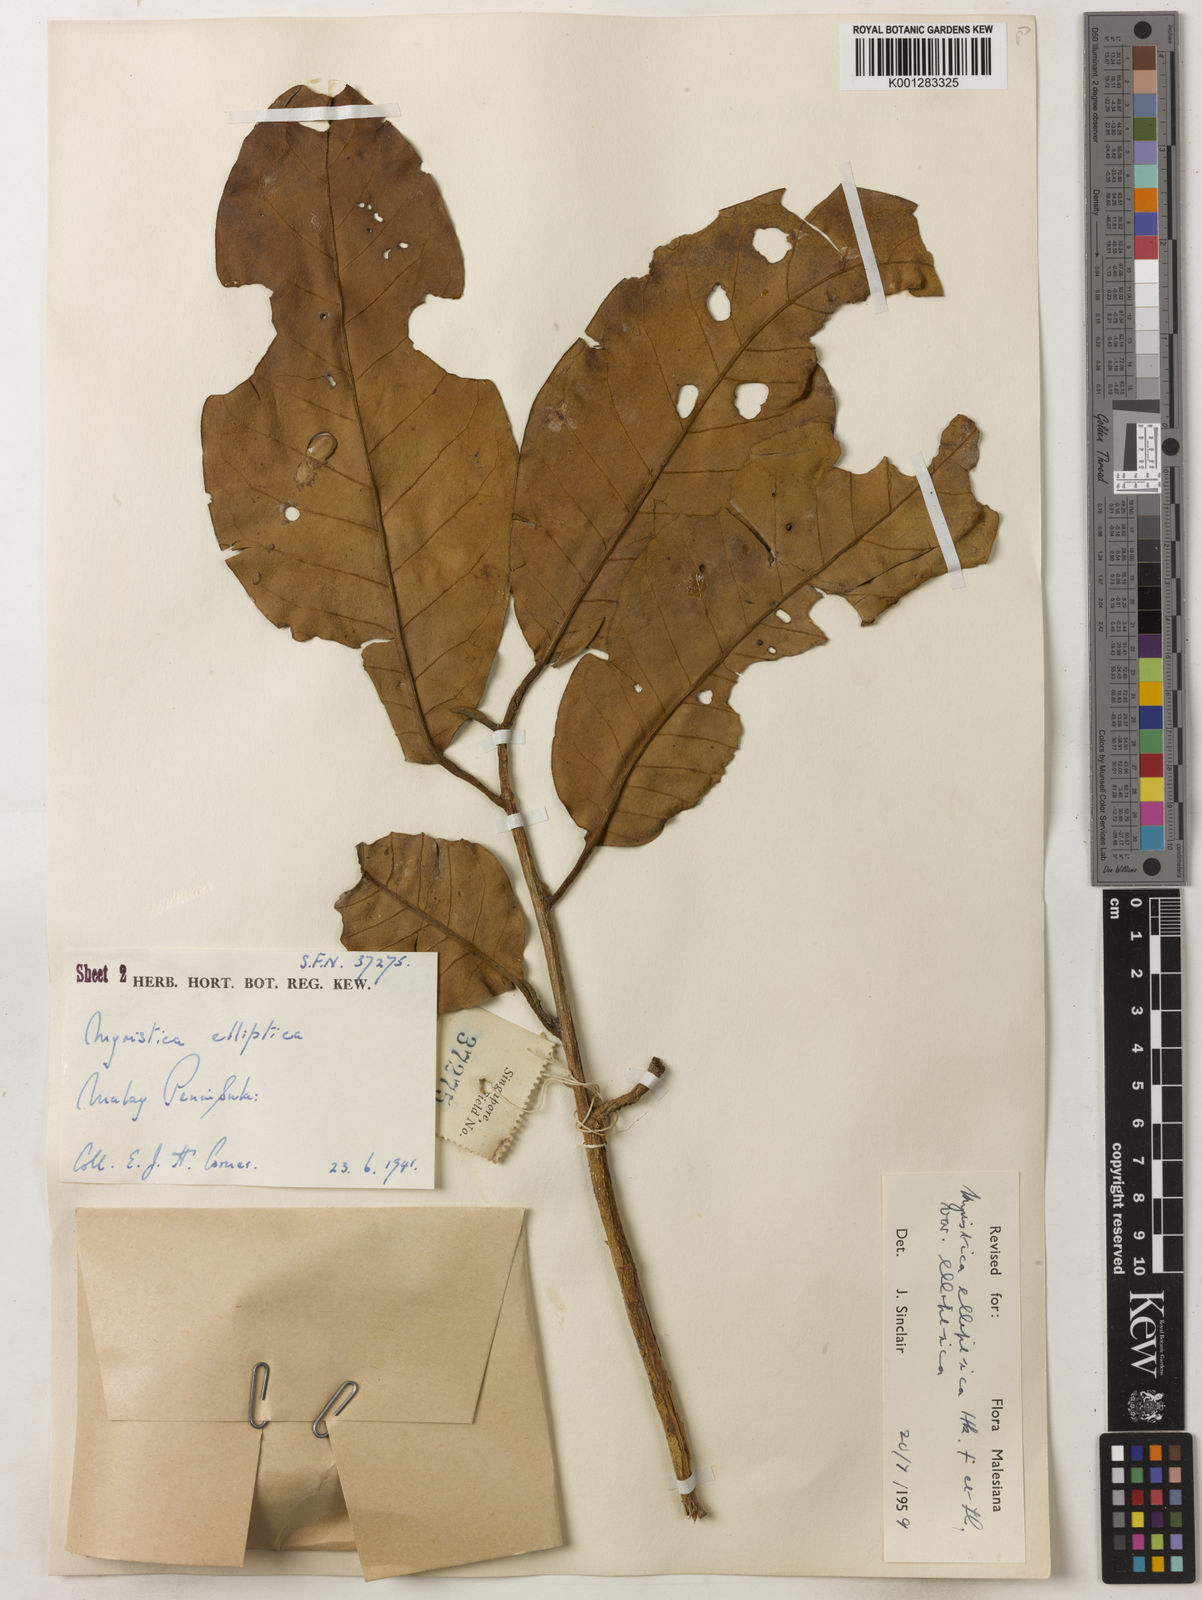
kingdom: Plantae
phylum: Tracheophyta
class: Magnoliopsida
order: Magnoliales
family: Myristicaceae
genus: Myristica
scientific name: Myristica elliptica
